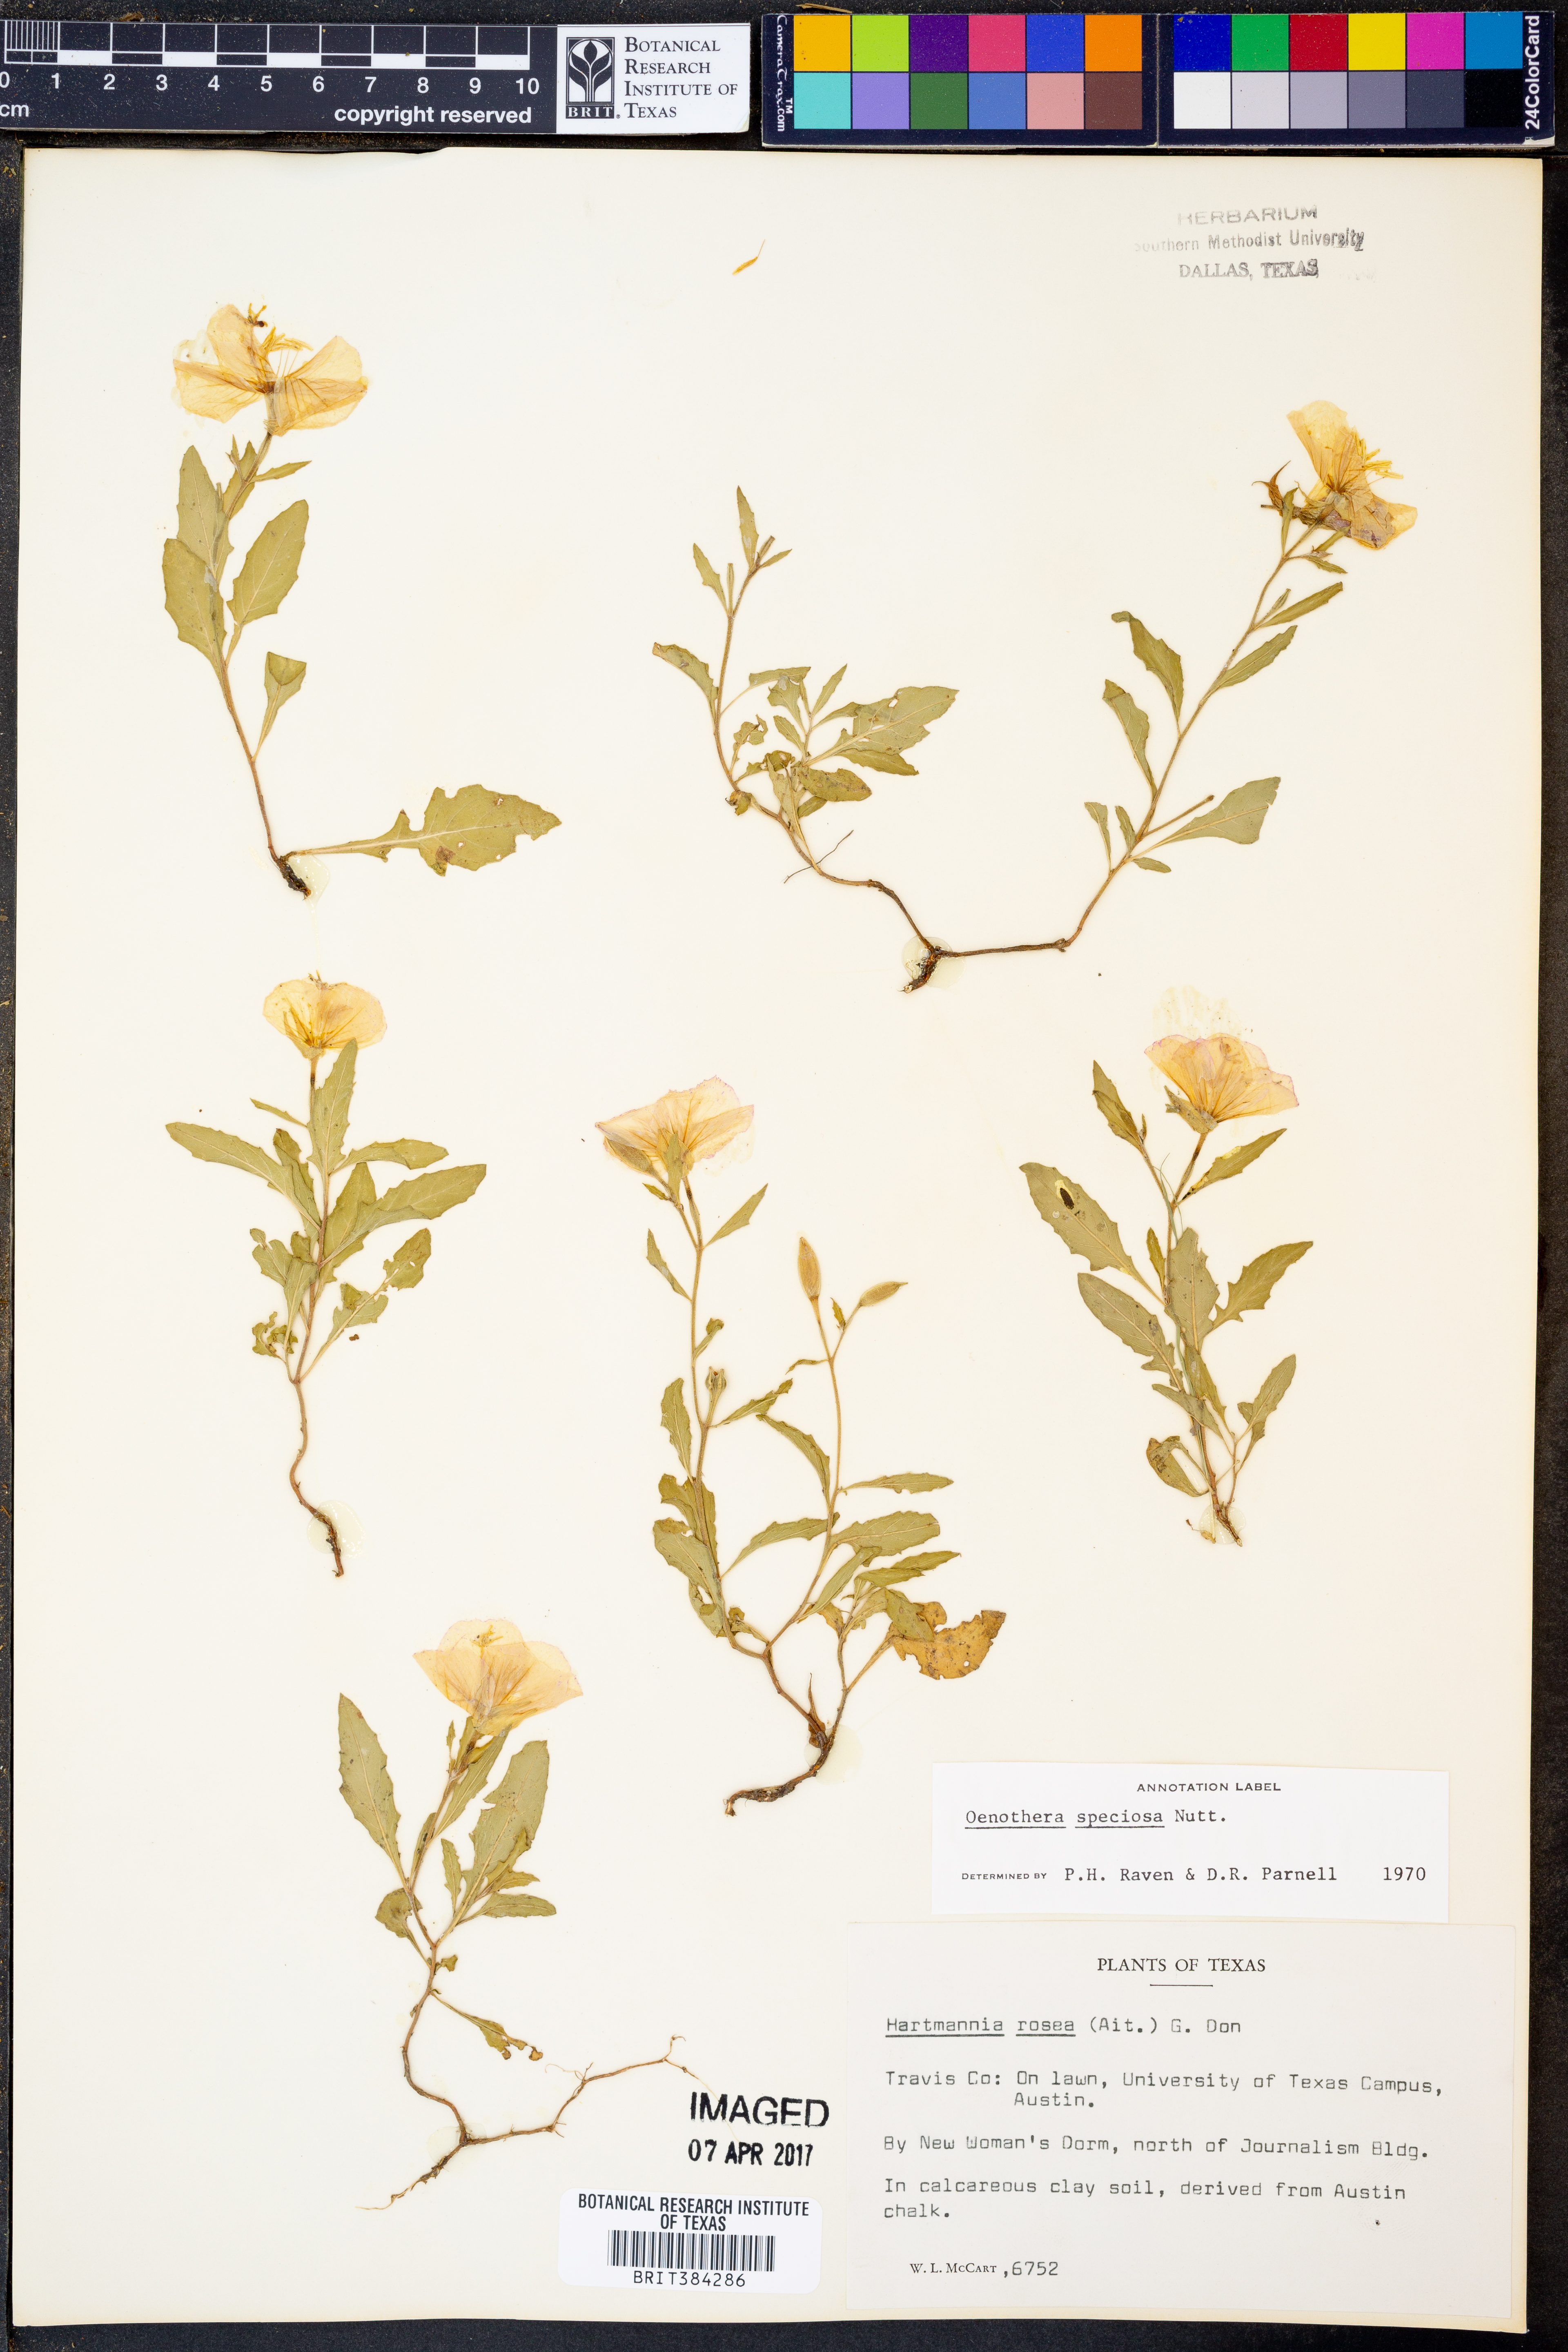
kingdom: Plantae
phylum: Tracheophyta
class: Magnoliopsida
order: Myrtales
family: Onagraceae
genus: Oenothera
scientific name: Oenothera speciosa
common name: White evening-primrose
